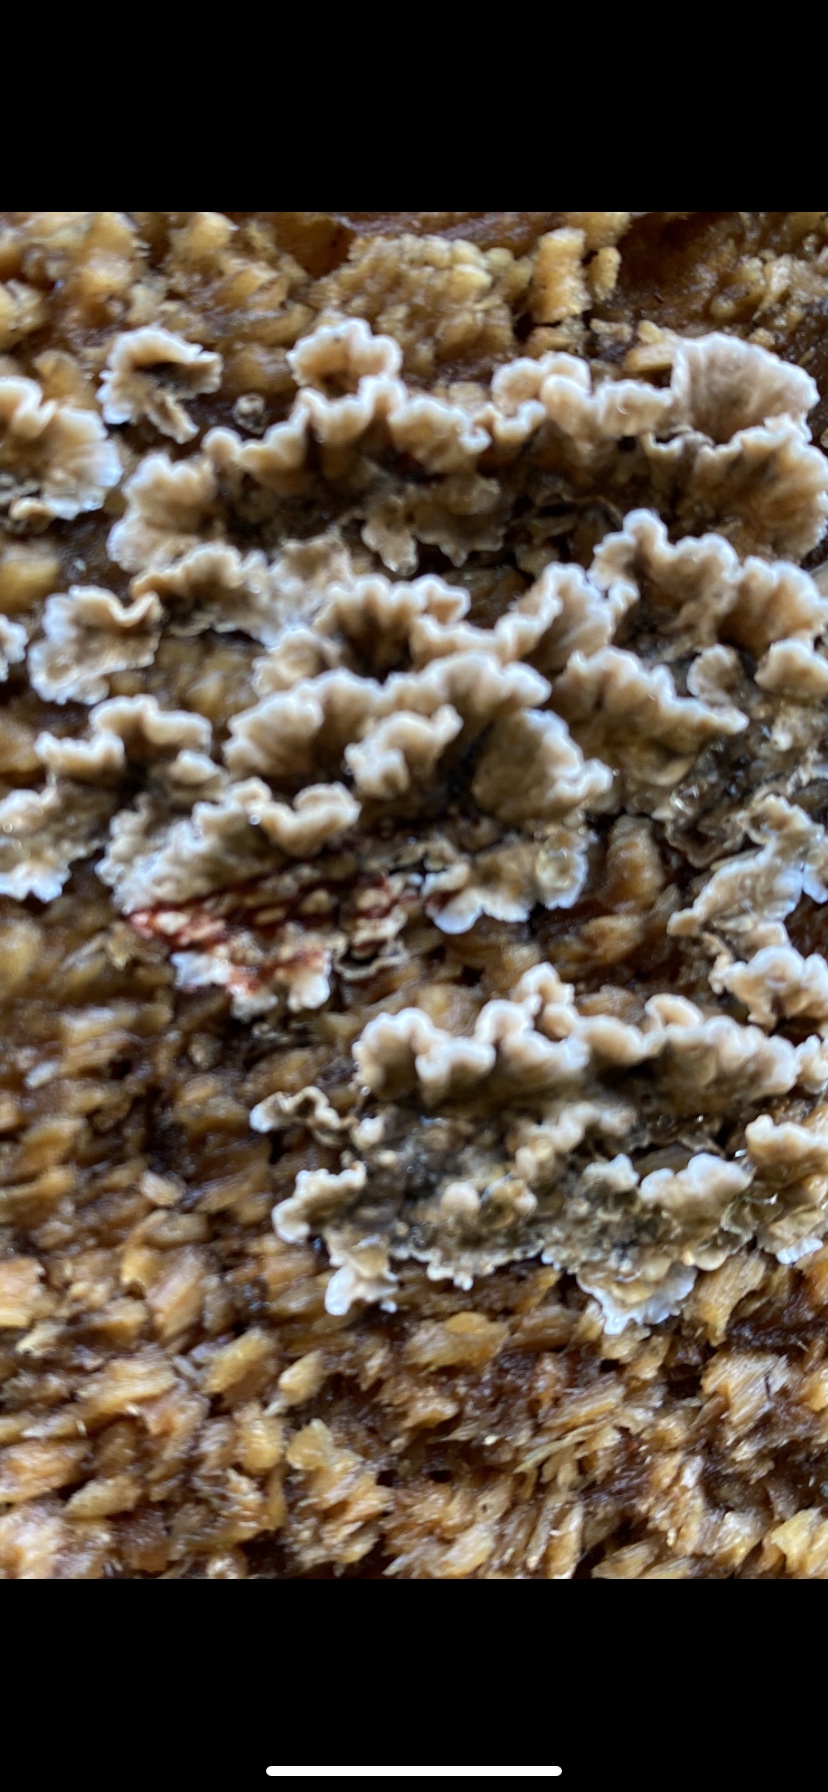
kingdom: Fungi
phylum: Basidiomycota
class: Agaricomycetes
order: Russulales
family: Stereaceae
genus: Stereum
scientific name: Stereum sanguinolentum
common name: blødende lædersvamp
